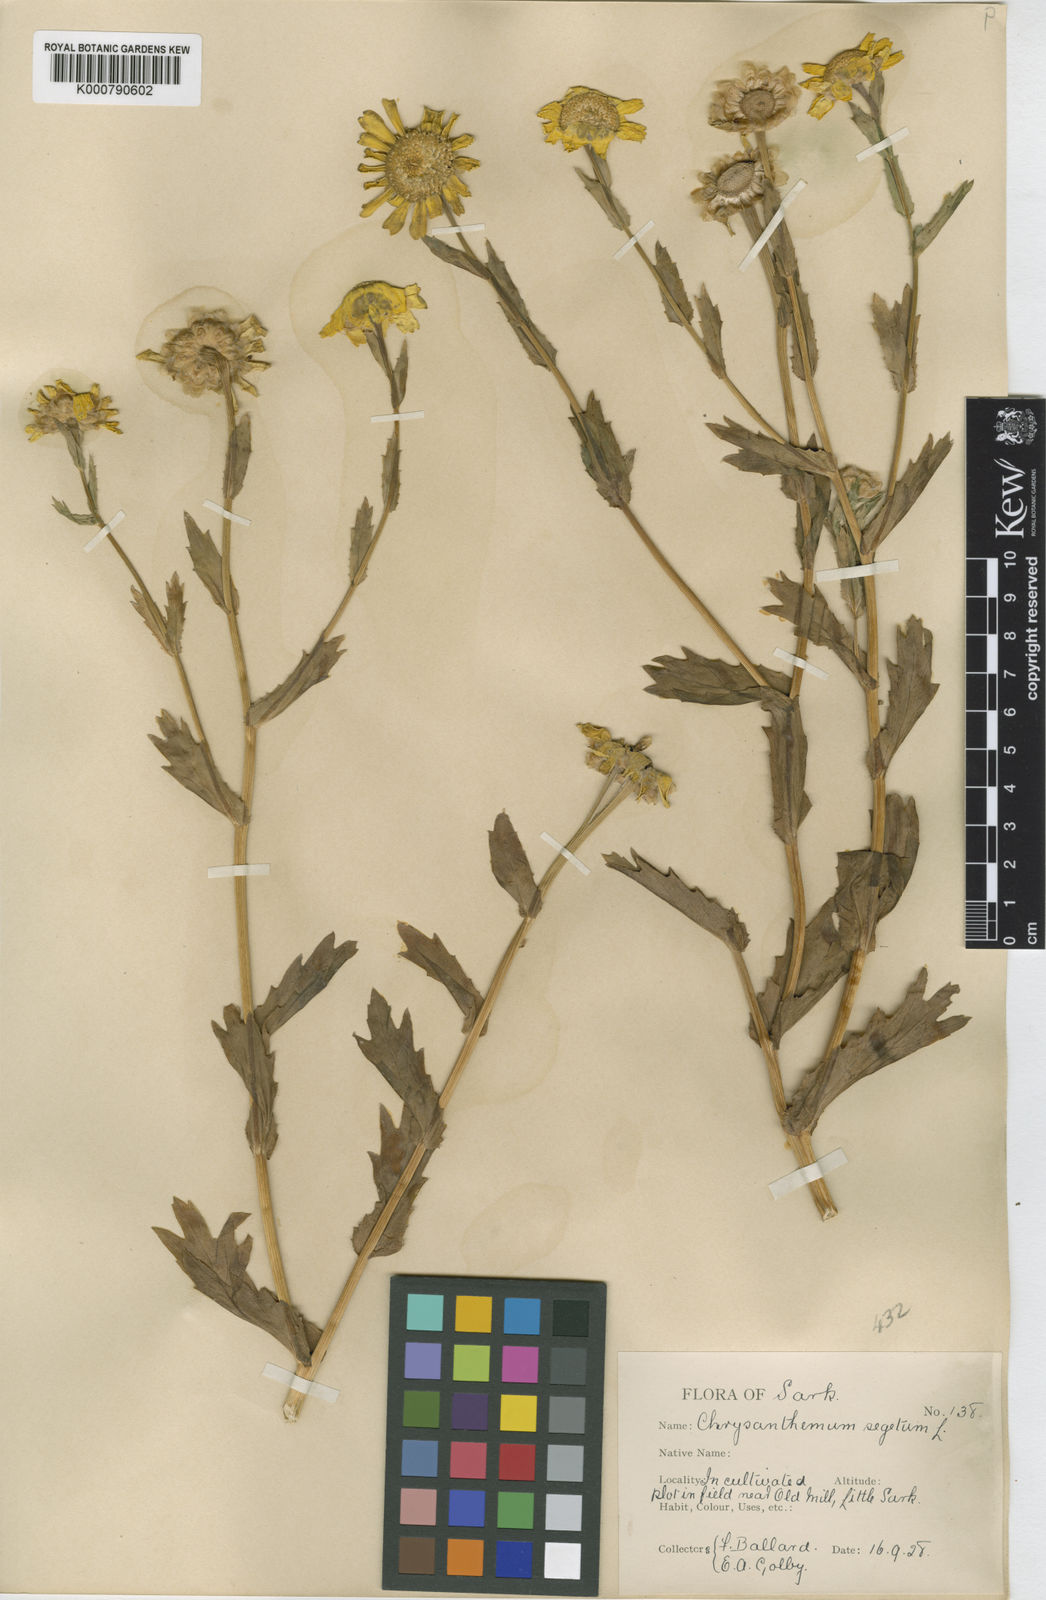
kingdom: Plantae
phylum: Tracheophyta
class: Magnoliopsida
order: Asterales
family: Asteraceae
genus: Glebionis
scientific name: Glebionis
